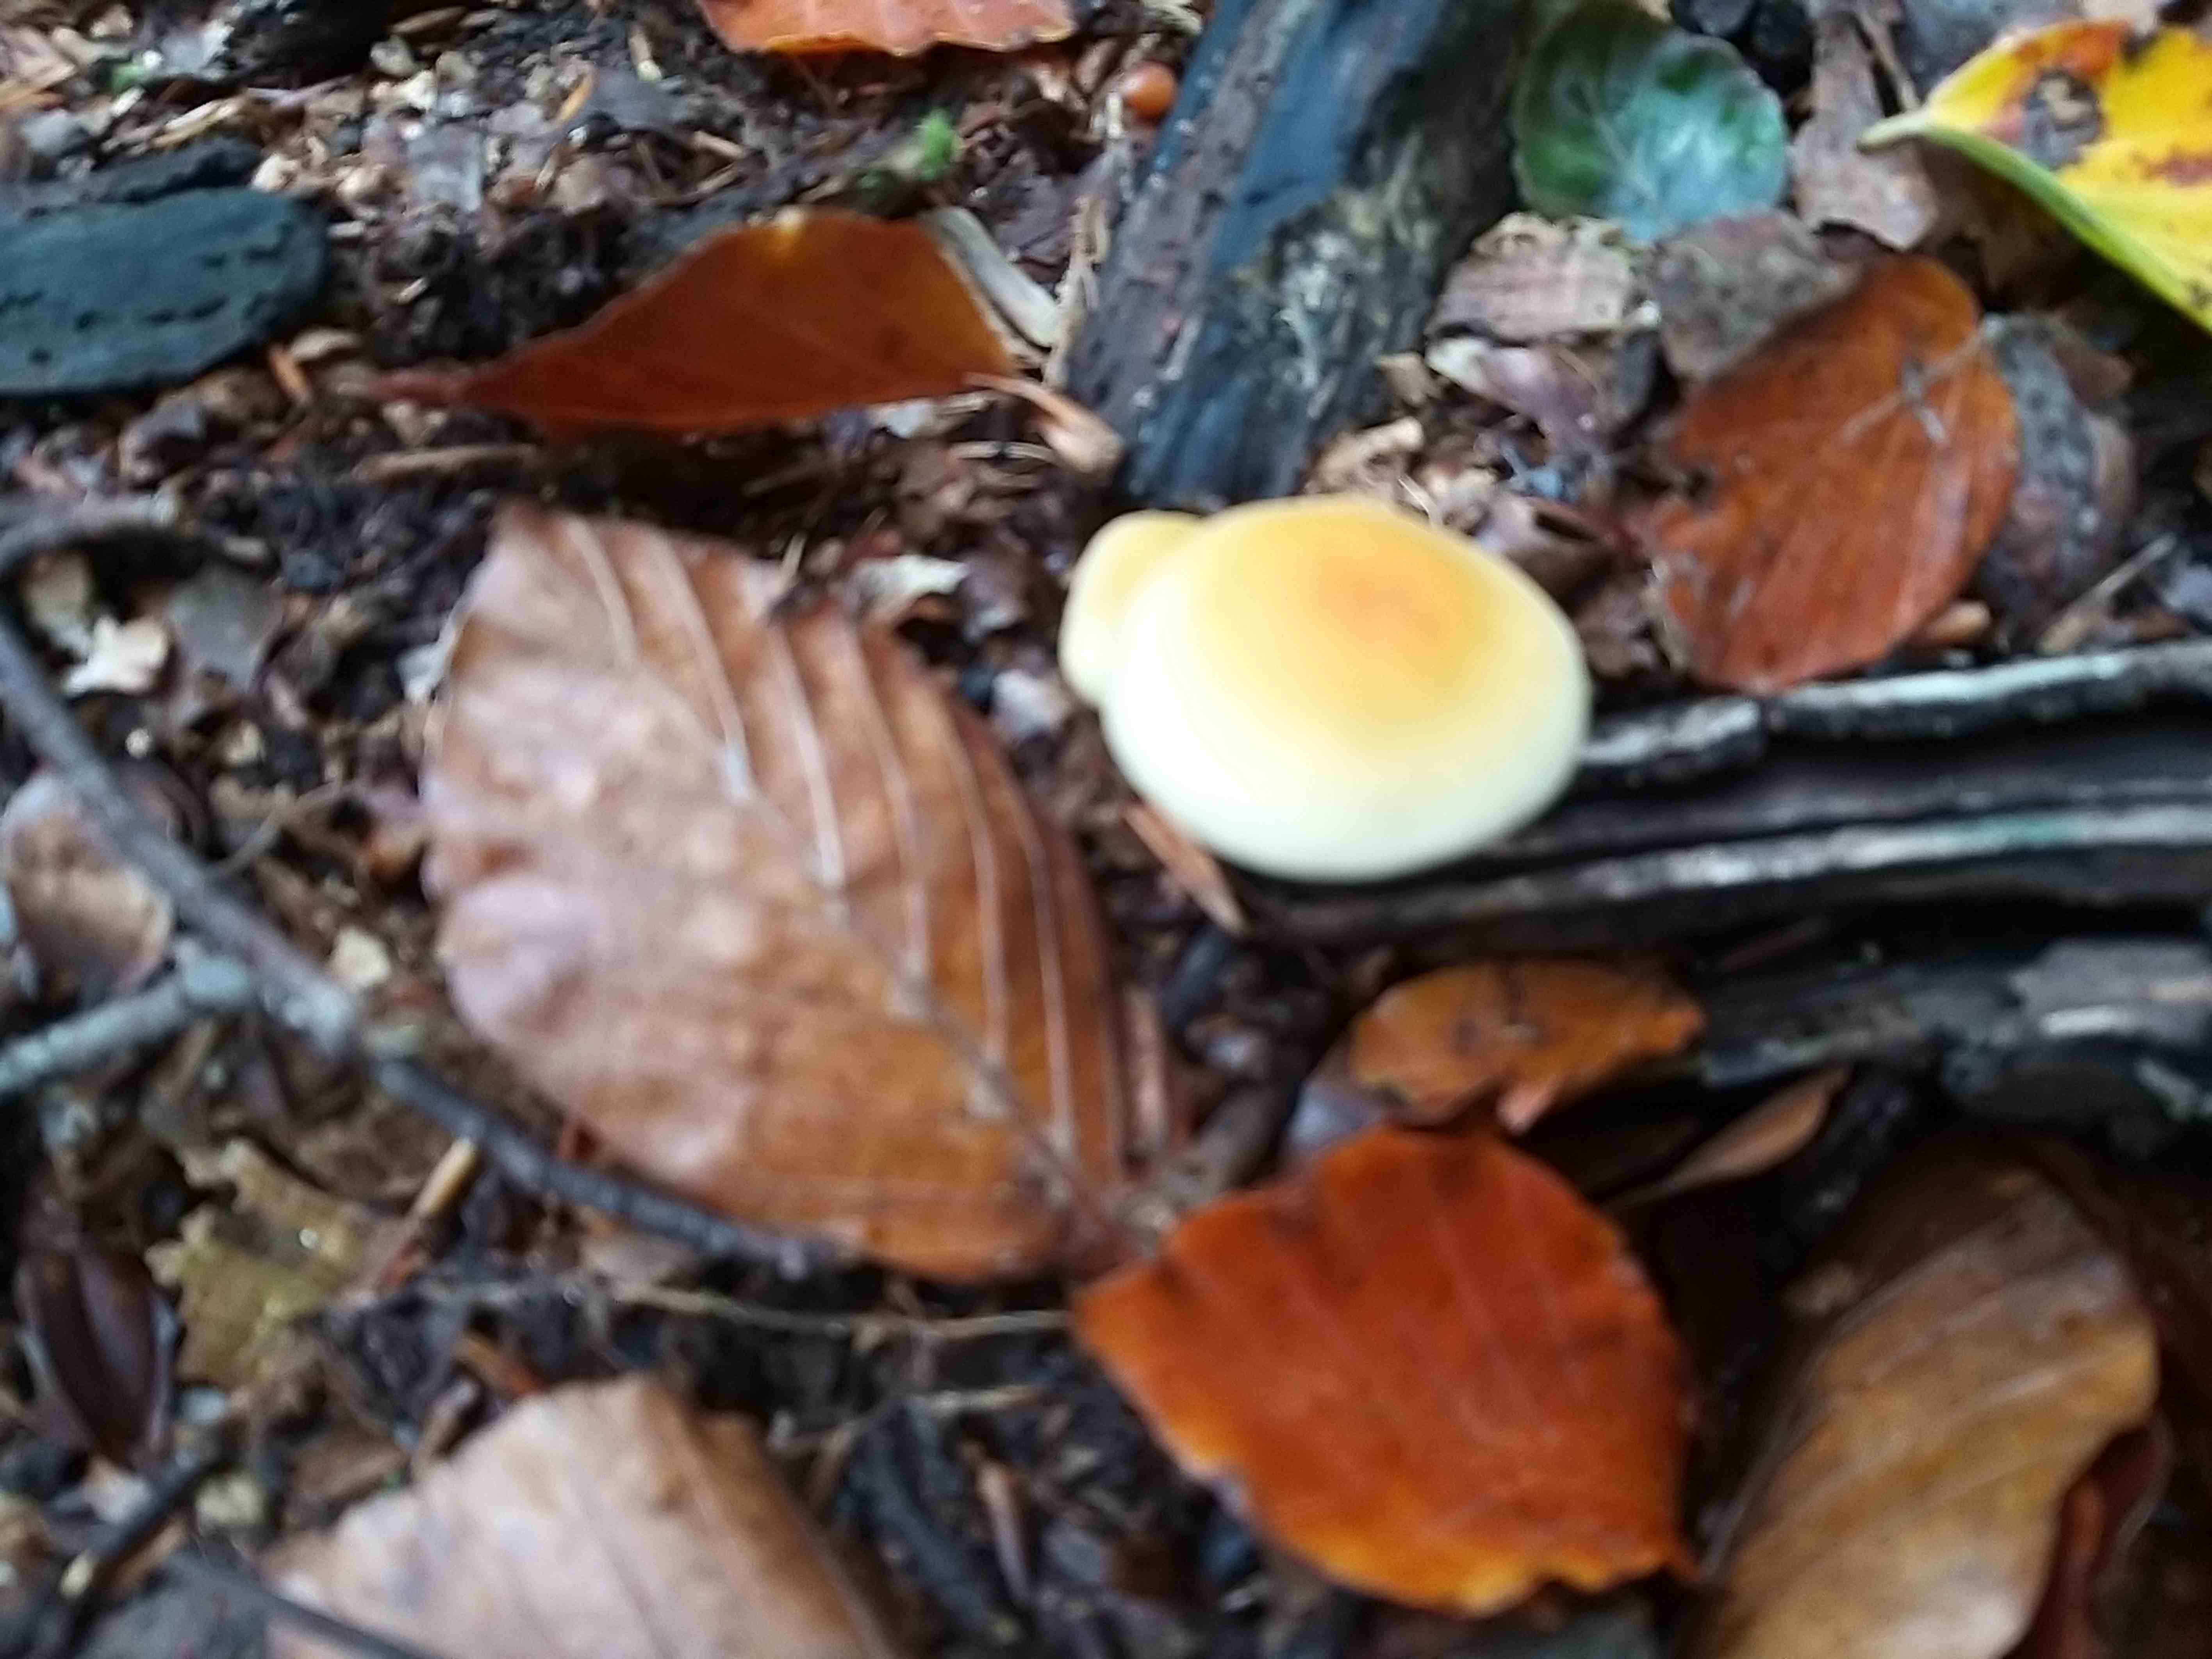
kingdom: Fungi
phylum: Basidiomycota
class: Agaricomycetes
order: Agaricales
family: Strophariaceae
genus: Hypholoma
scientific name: Hypholoma fasciculare
